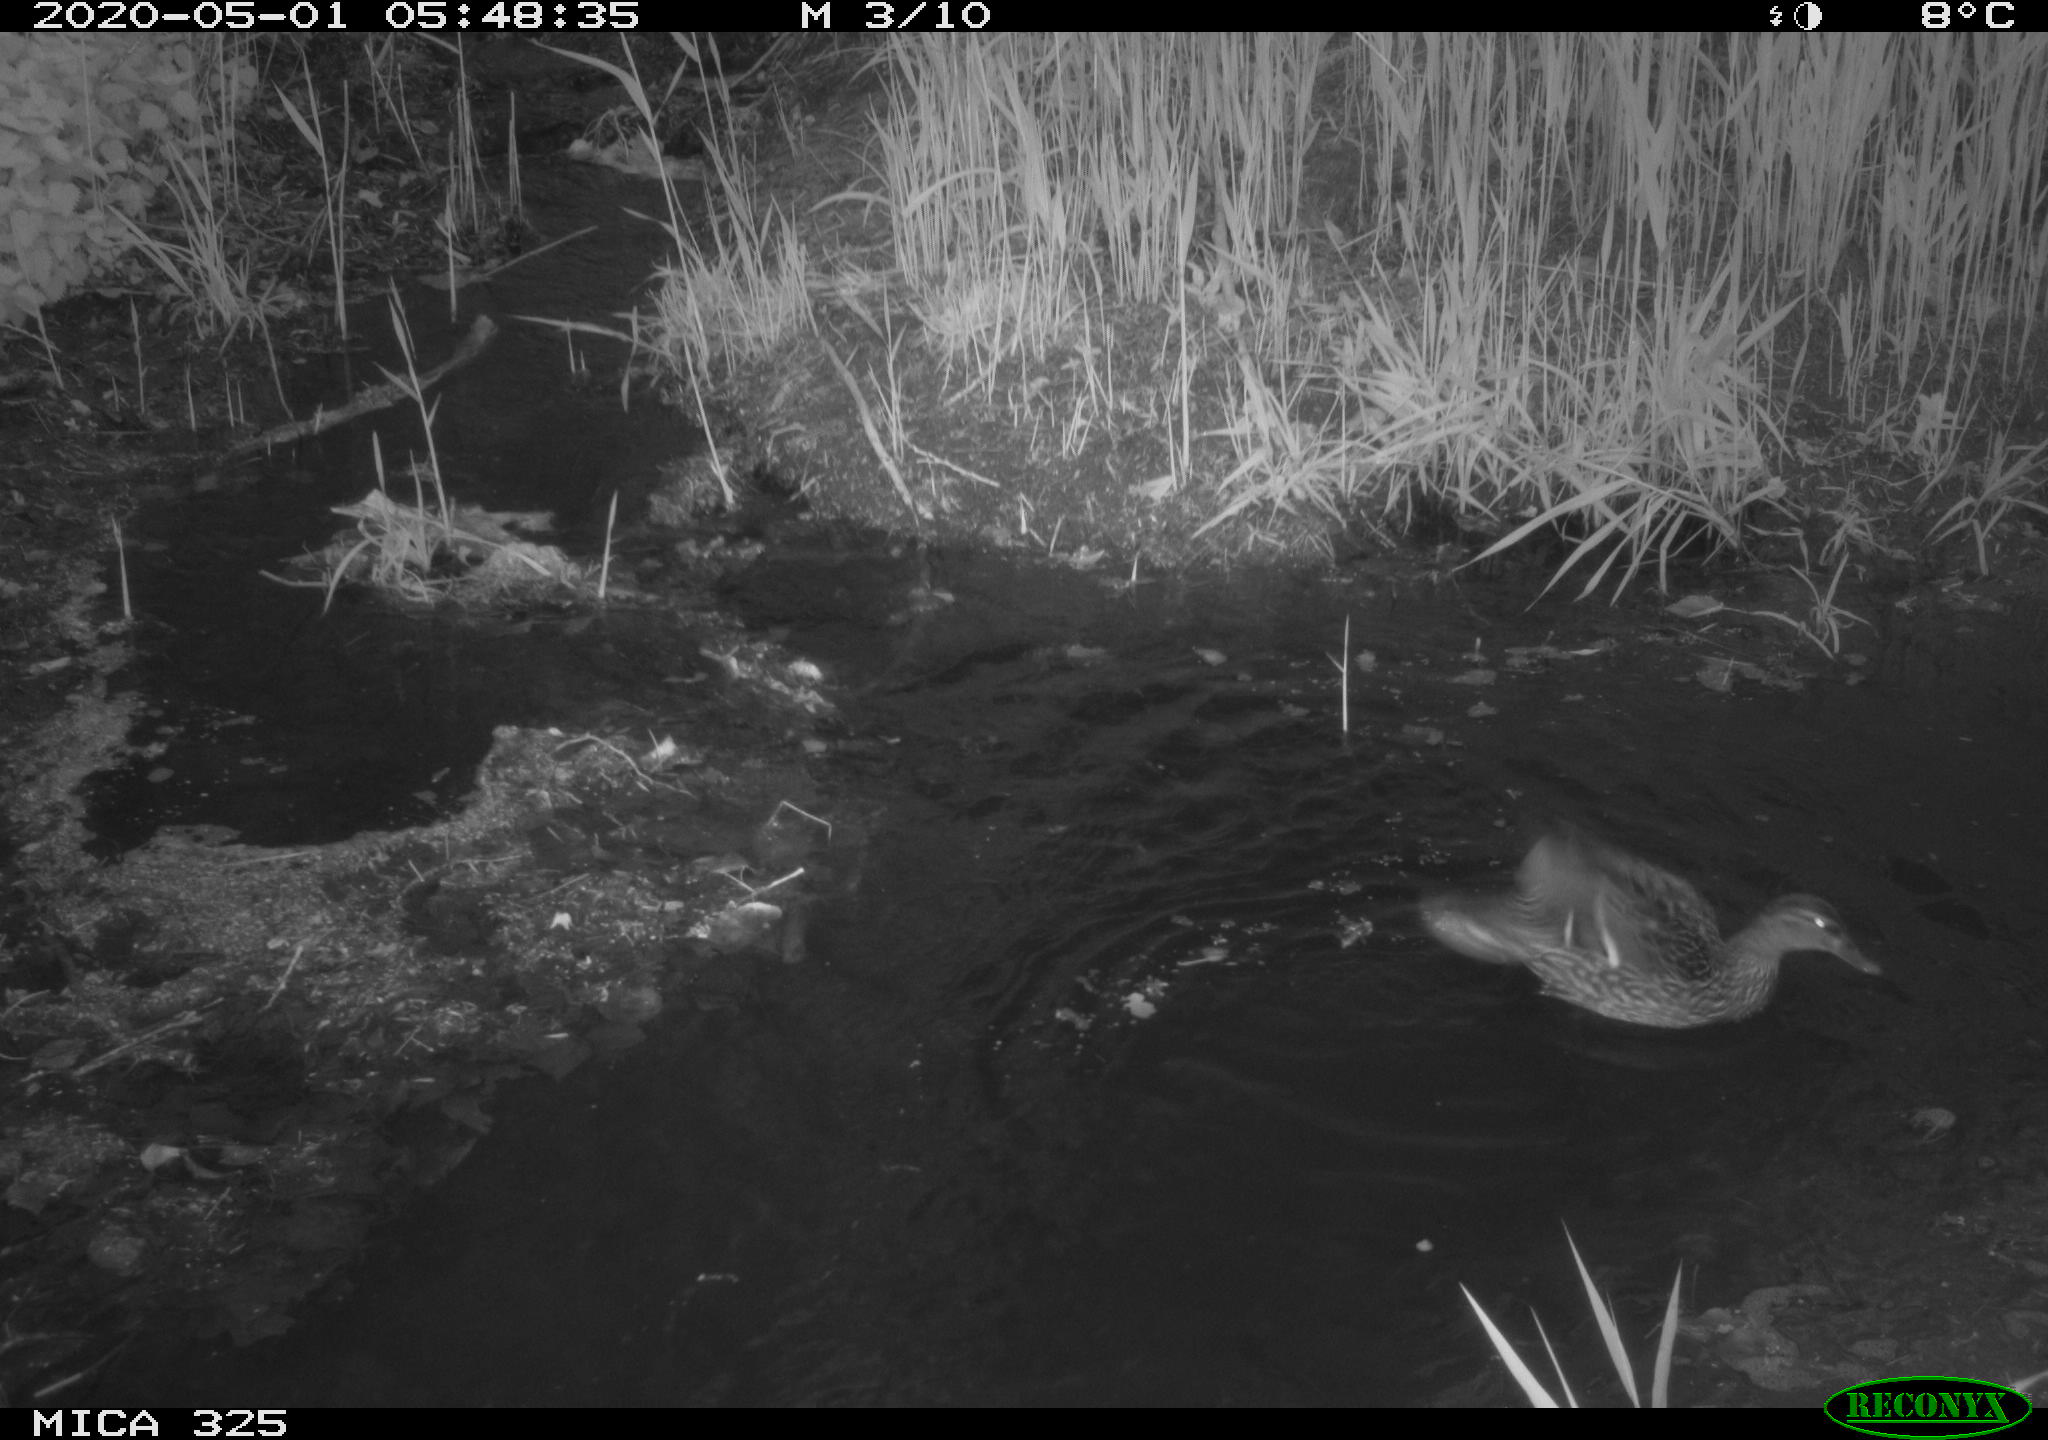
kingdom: Animalia
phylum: Chordata
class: Aves
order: Anseriformes
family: Anatidae
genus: Anas
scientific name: Anas platyrhynchos
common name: Mallard
